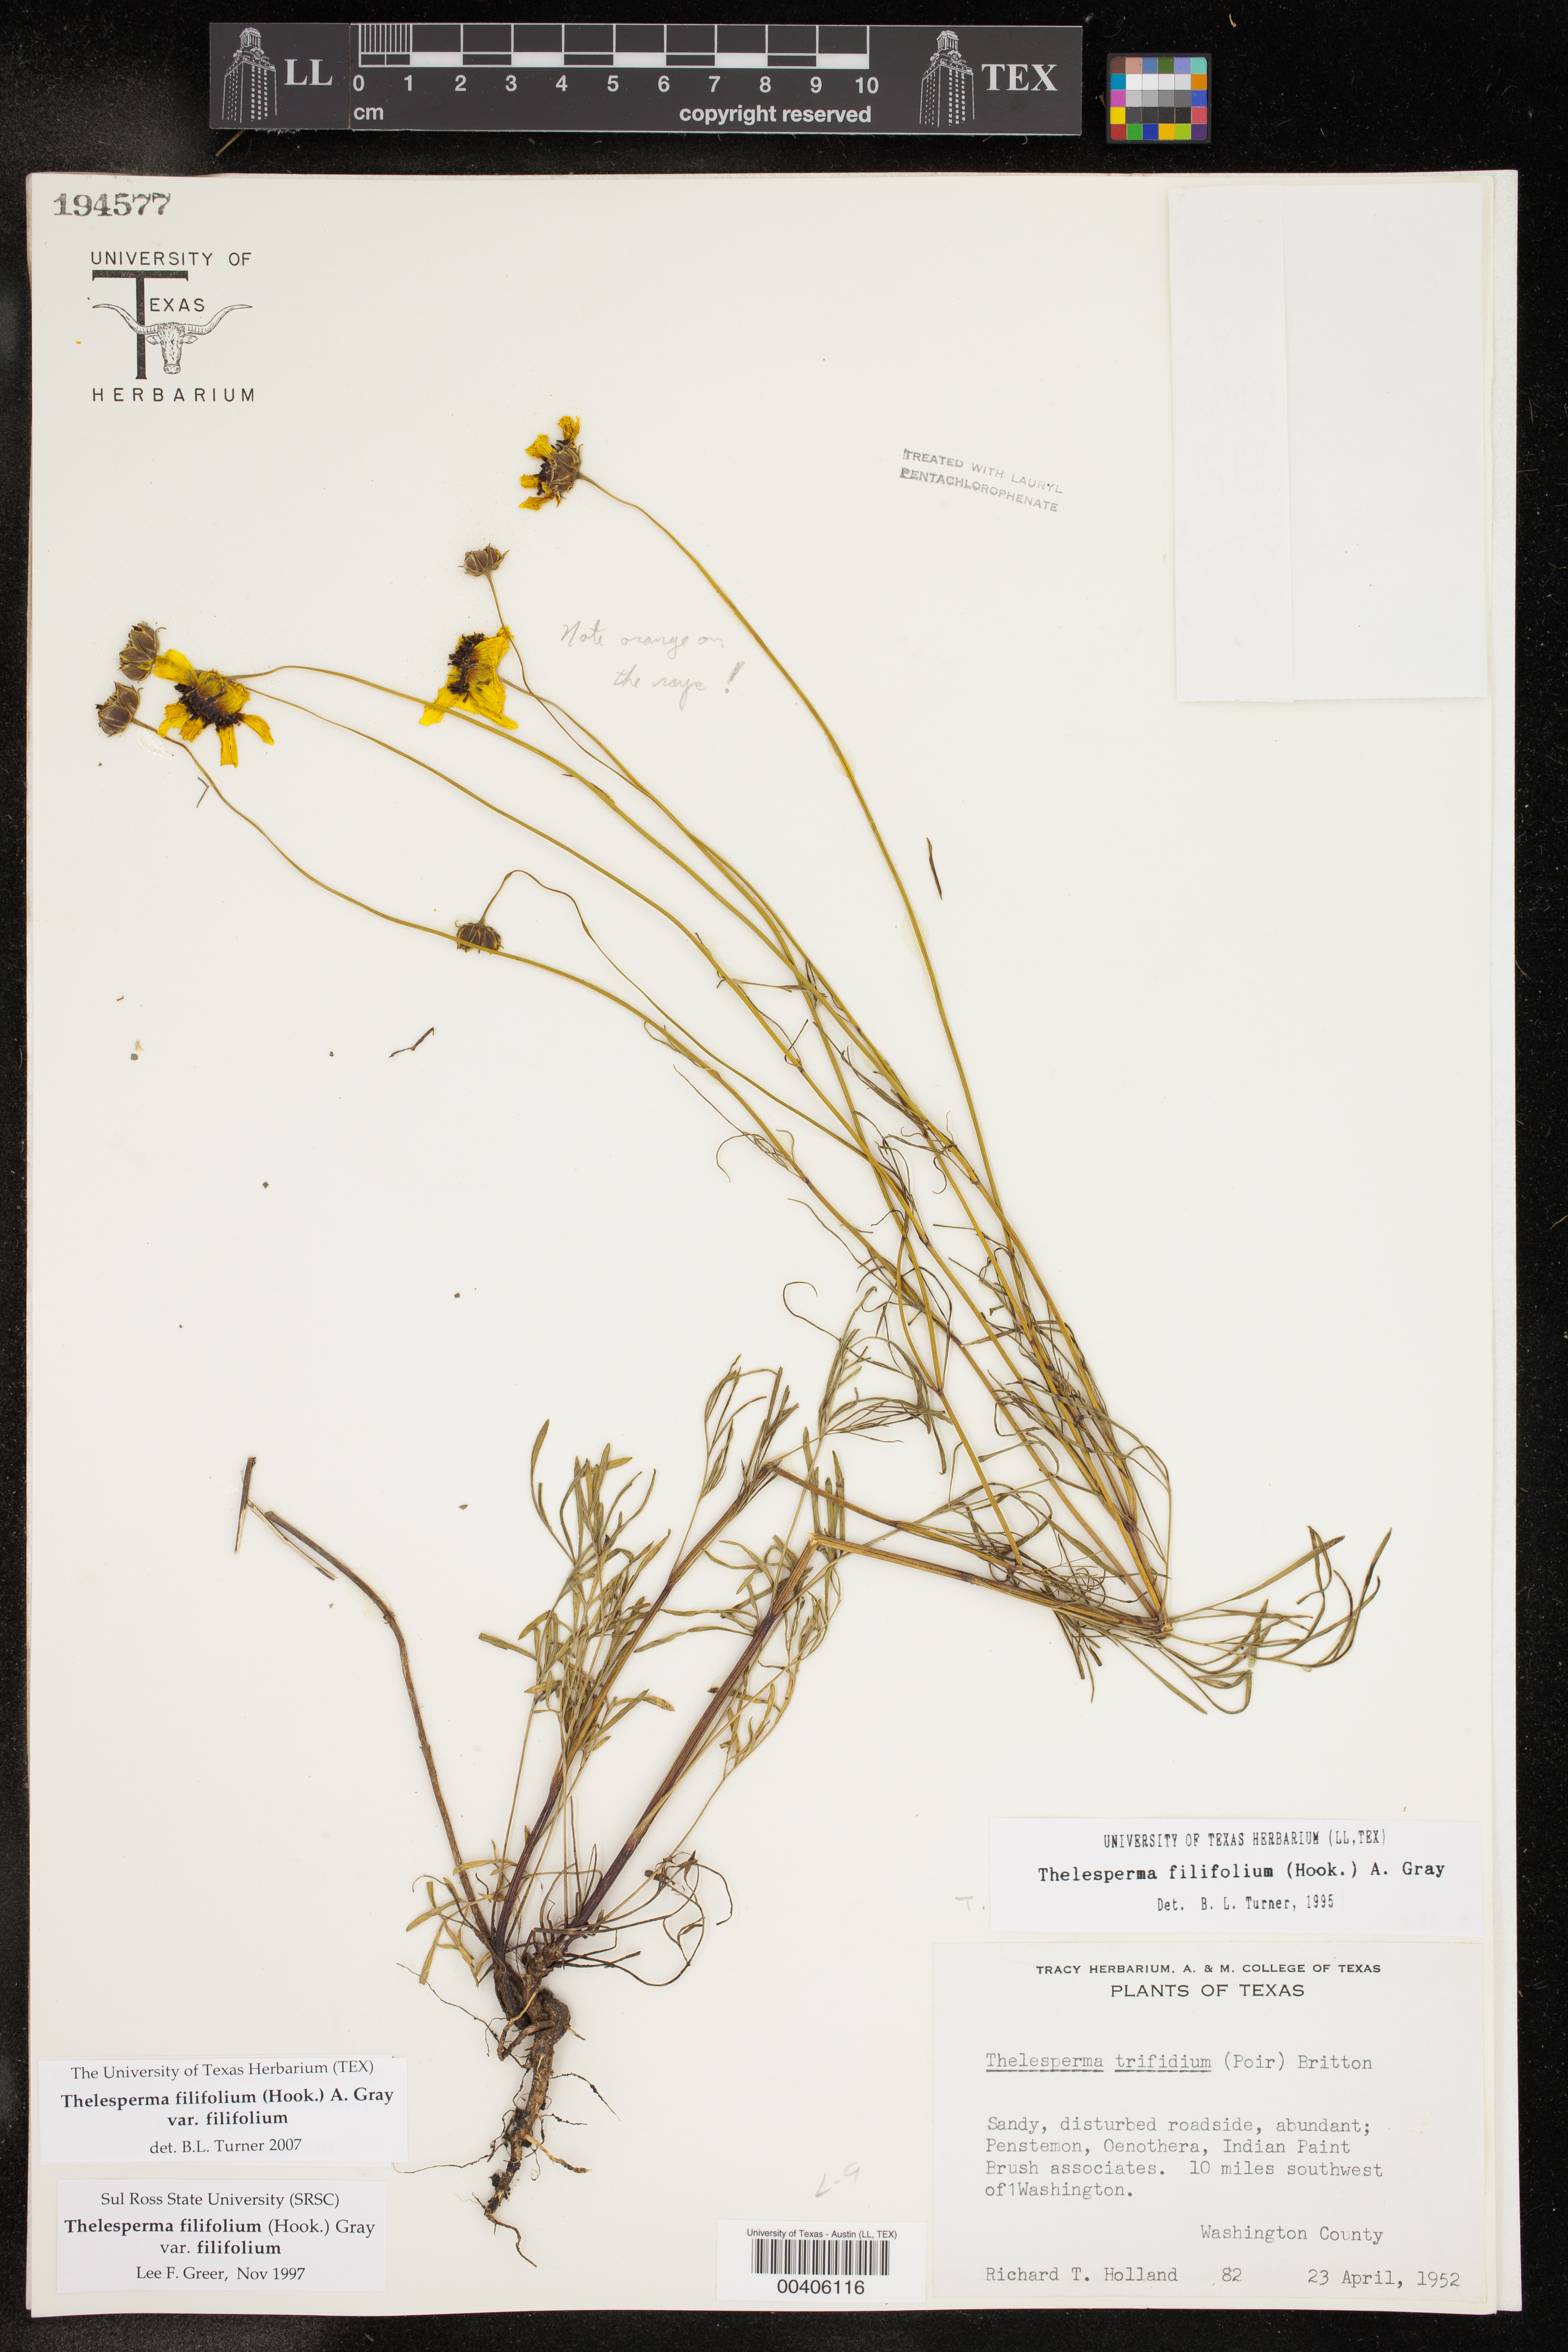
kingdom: Plantae
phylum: Tracheophyta
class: Magnoliopsida
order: Asterales
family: Asteraceae
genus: Thelesperma
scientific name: Thelesperma filifolium
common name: Stiff greenthread
